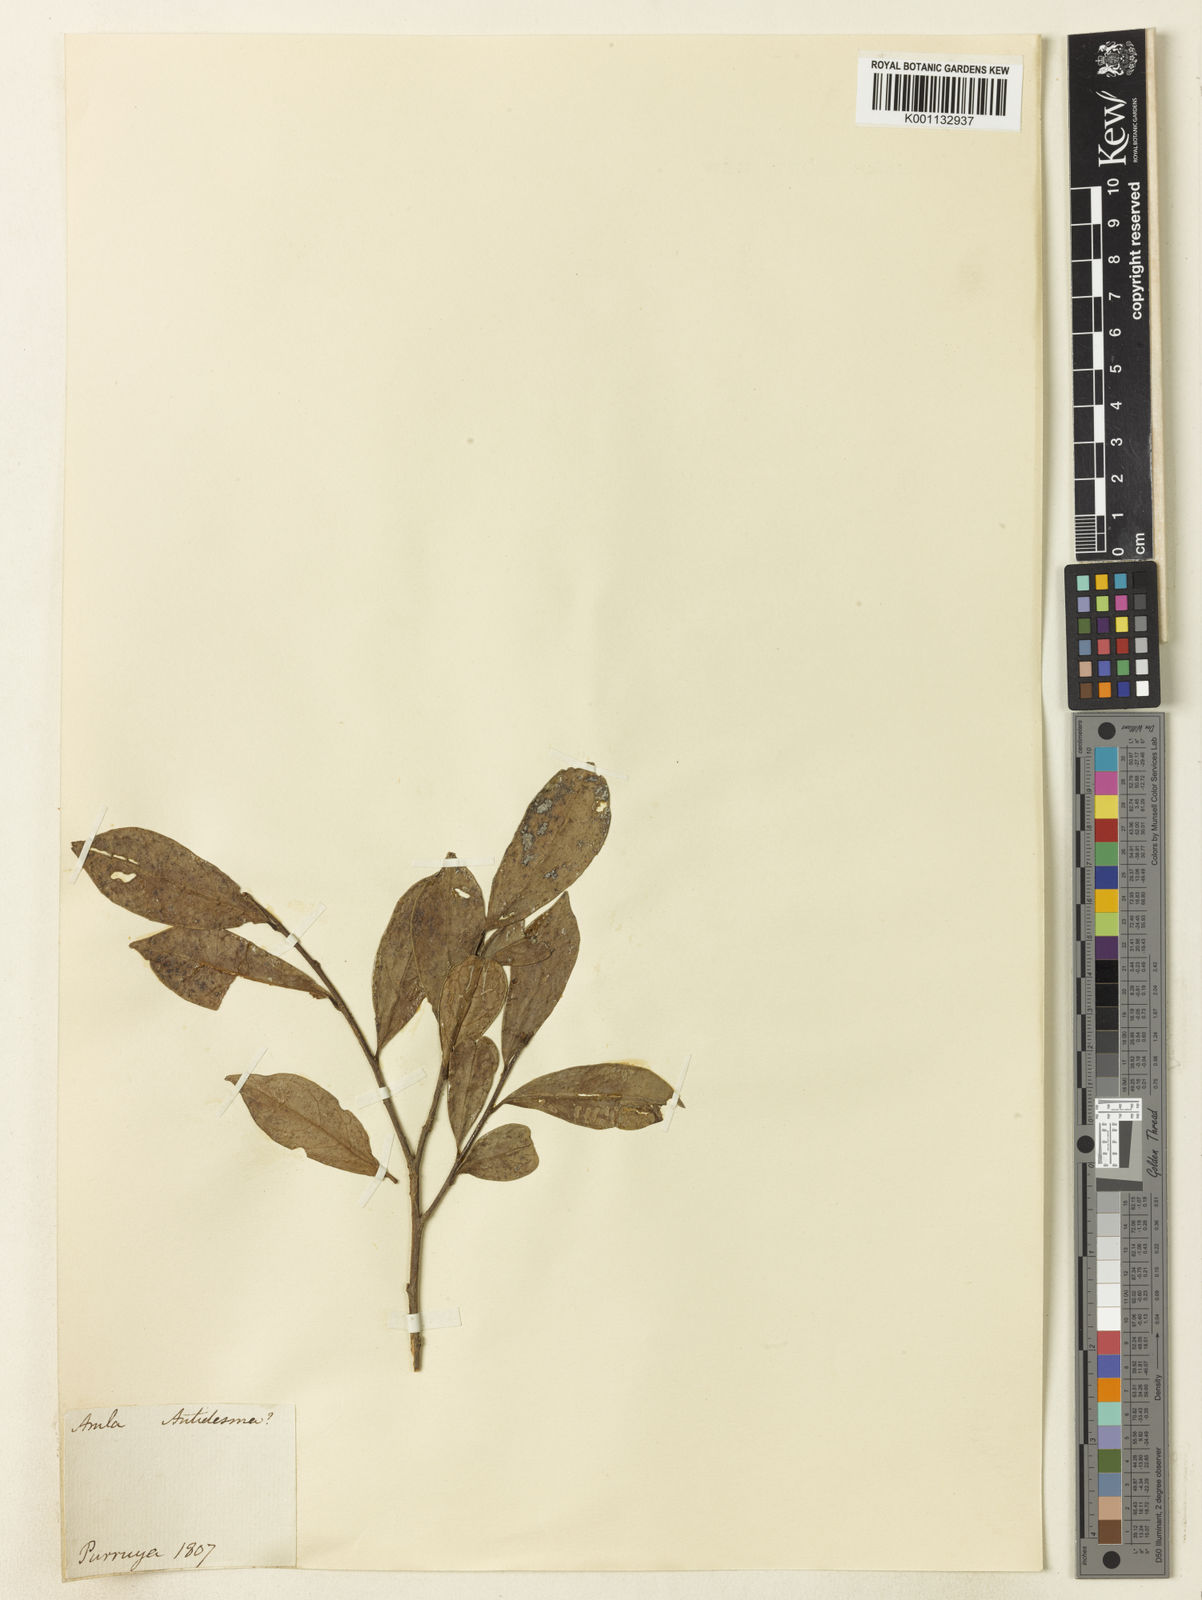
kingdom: Plantae
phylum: Tracheophyta
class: Magnoliopsida
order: Malpighiales
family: Phyllanthaceae
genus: Antidesma
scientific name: Antidesma
